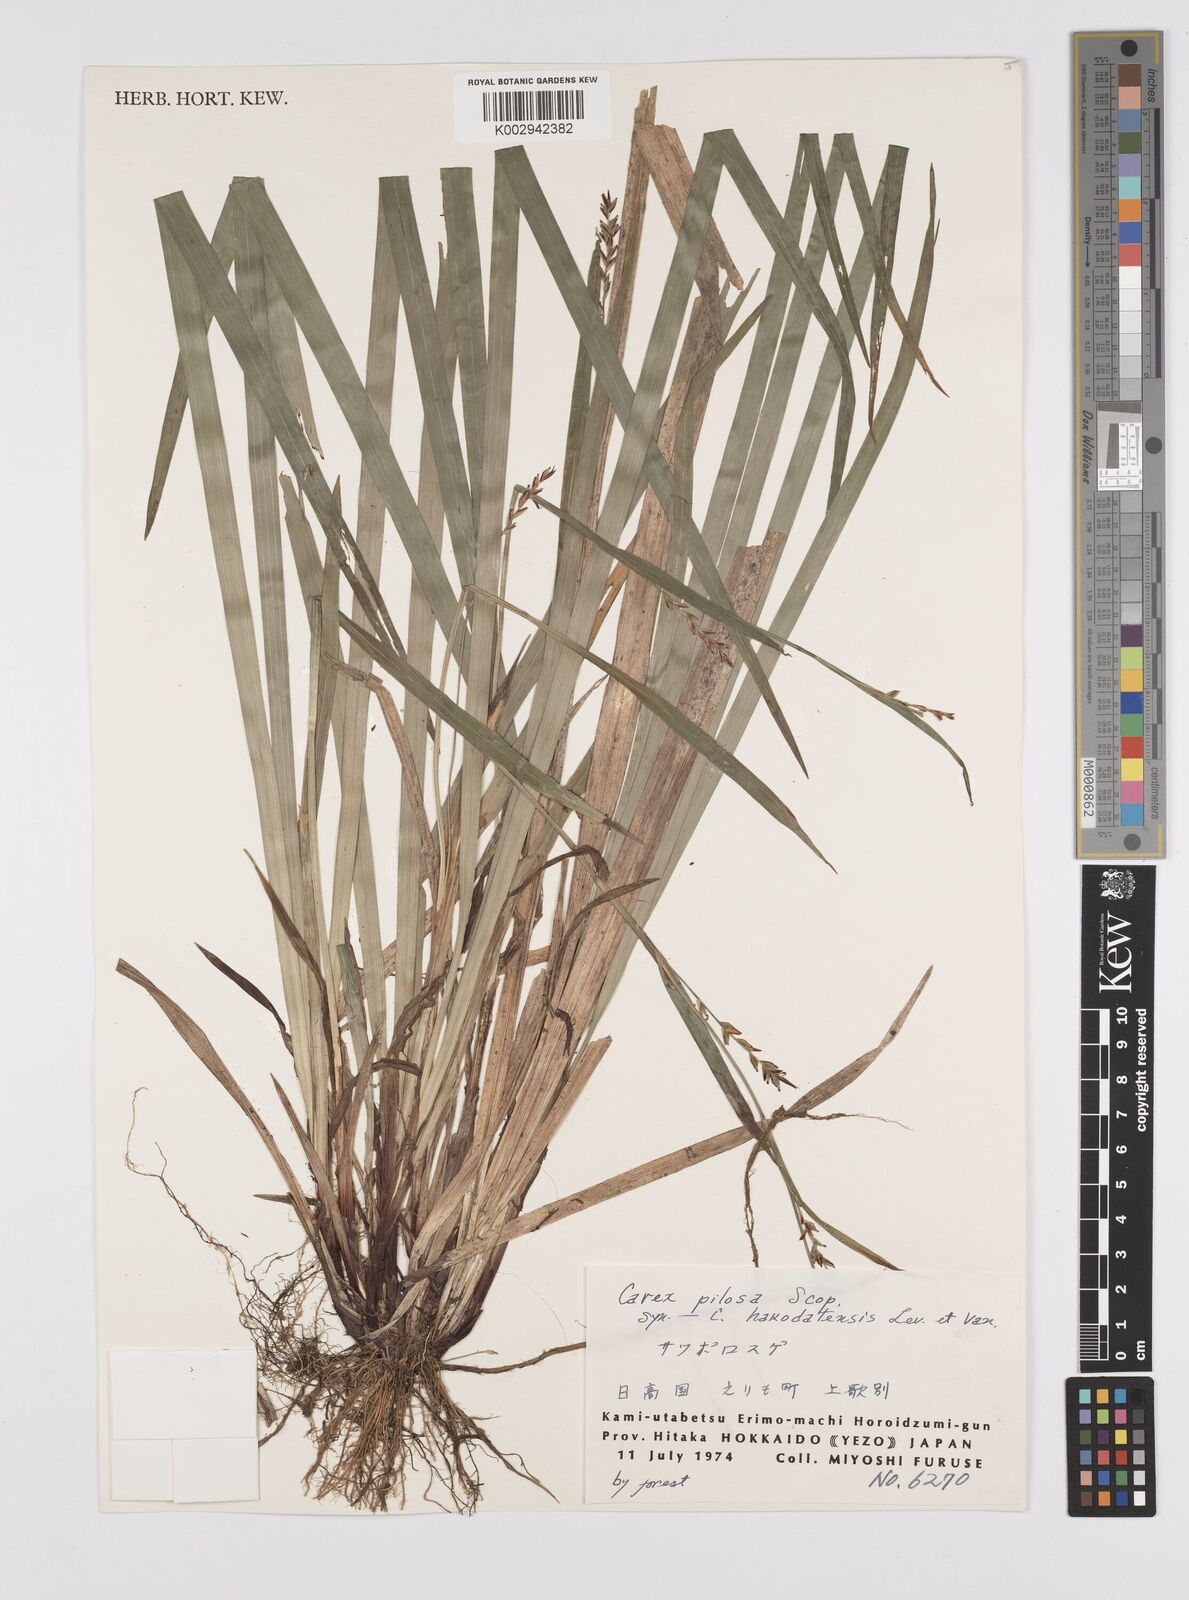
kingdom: Plantae
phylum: Tracheophyta
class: Liliopsida
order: Poales
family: Cyperaceae
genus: Carex
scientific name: Carex pilosa
